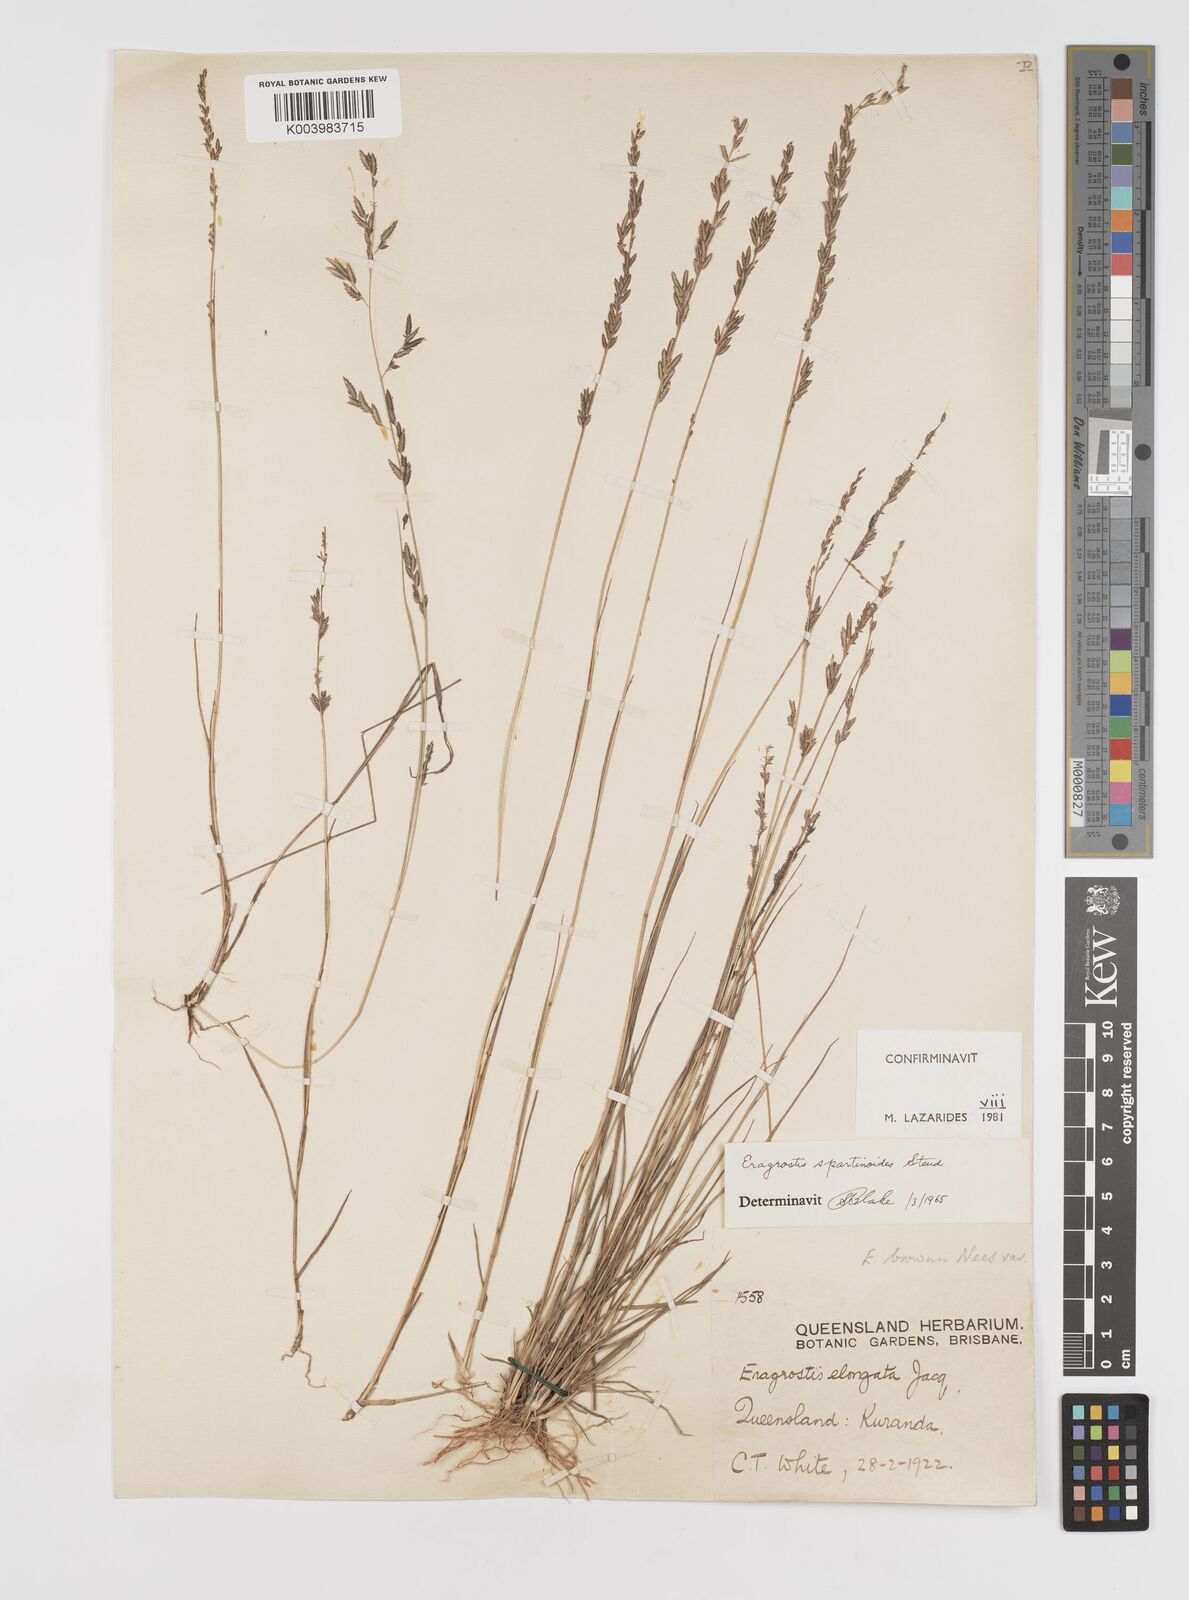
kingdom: Plantae
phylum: Tracheophyta
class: Liliopsida
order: Poales
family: Poaceae
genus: Eragrostis
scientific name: Eragrostis brownii
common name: Lovegrass
